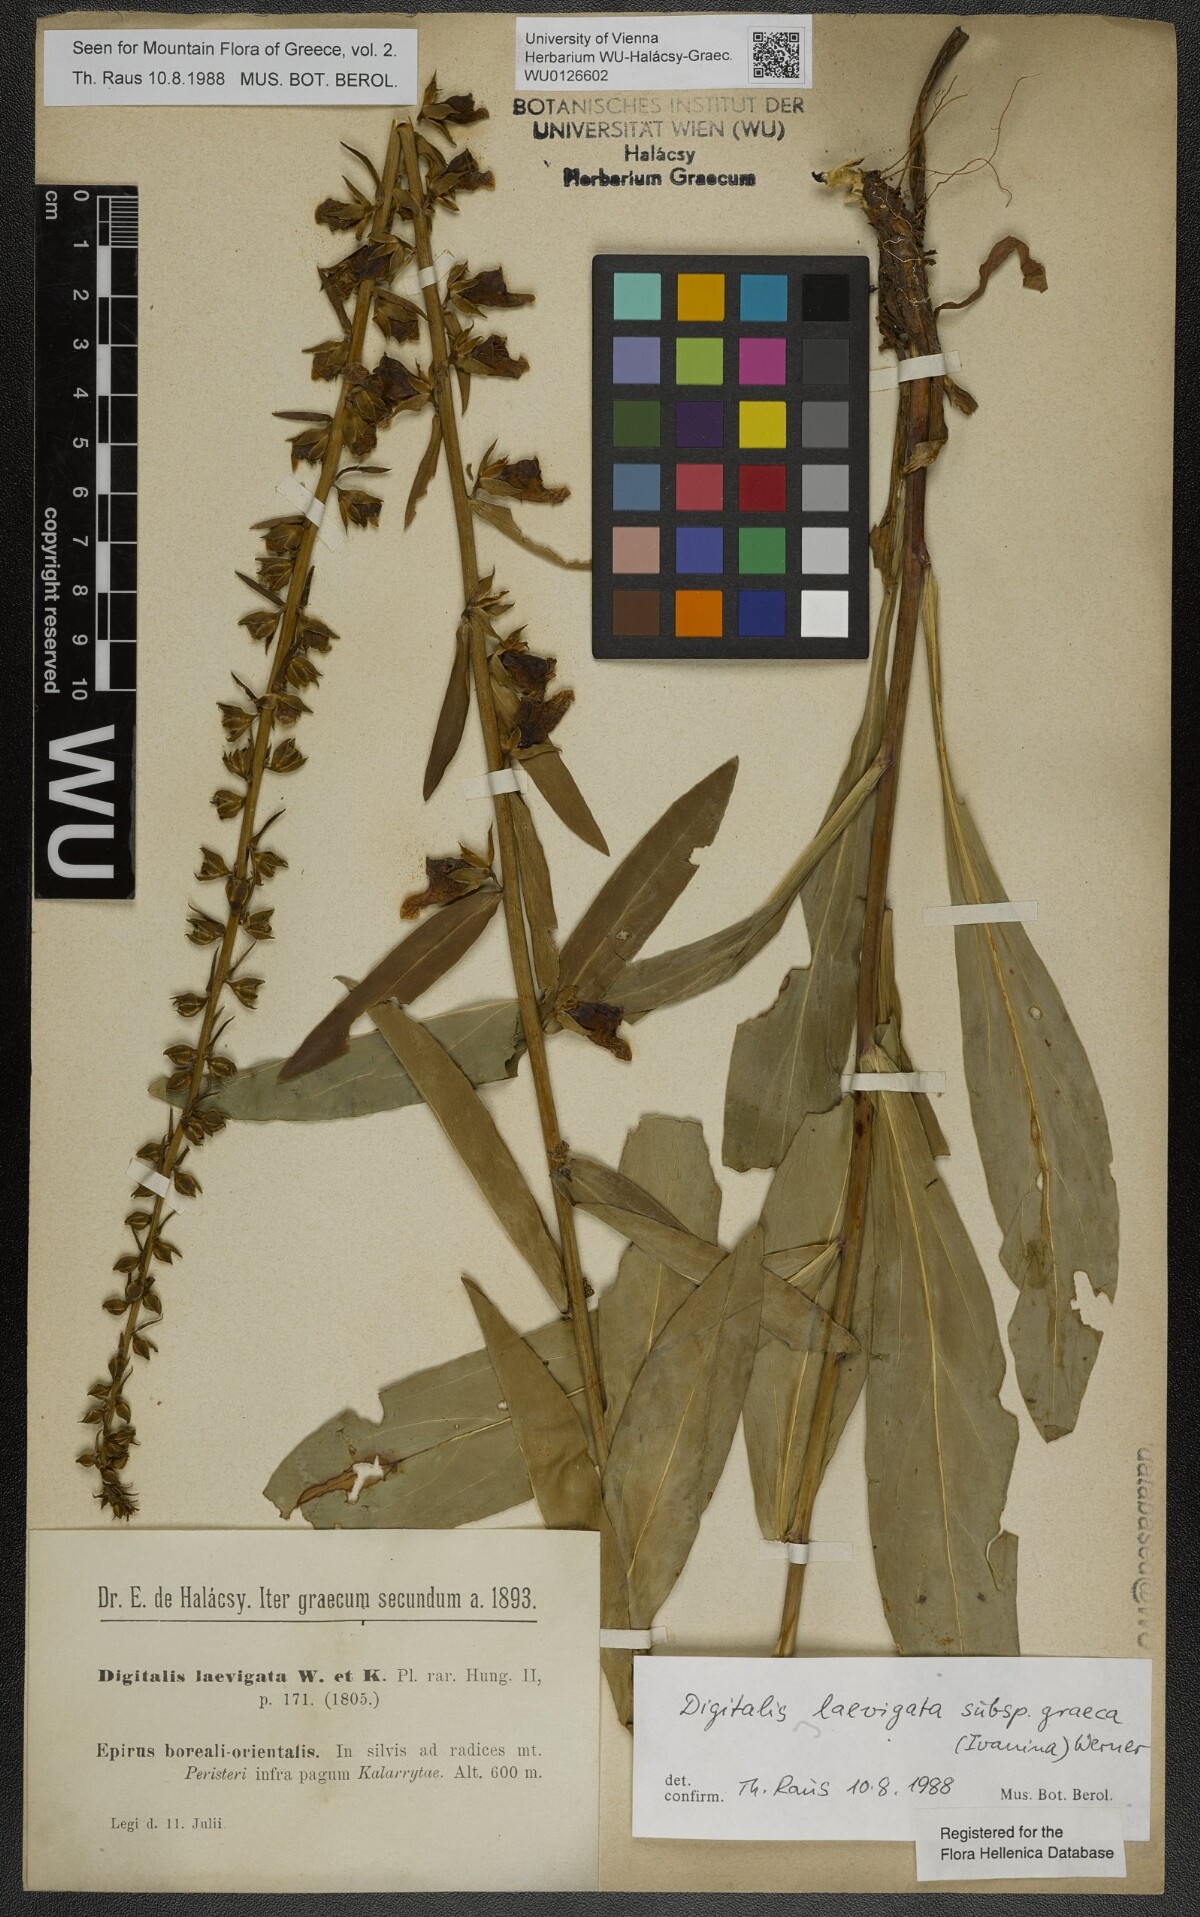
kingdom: Plantae
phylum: Tracheophyta
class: Magnoliopsida
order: Lamiales
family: Plantaginaceae
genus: Digitalis
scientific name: Digitalis laevigata
